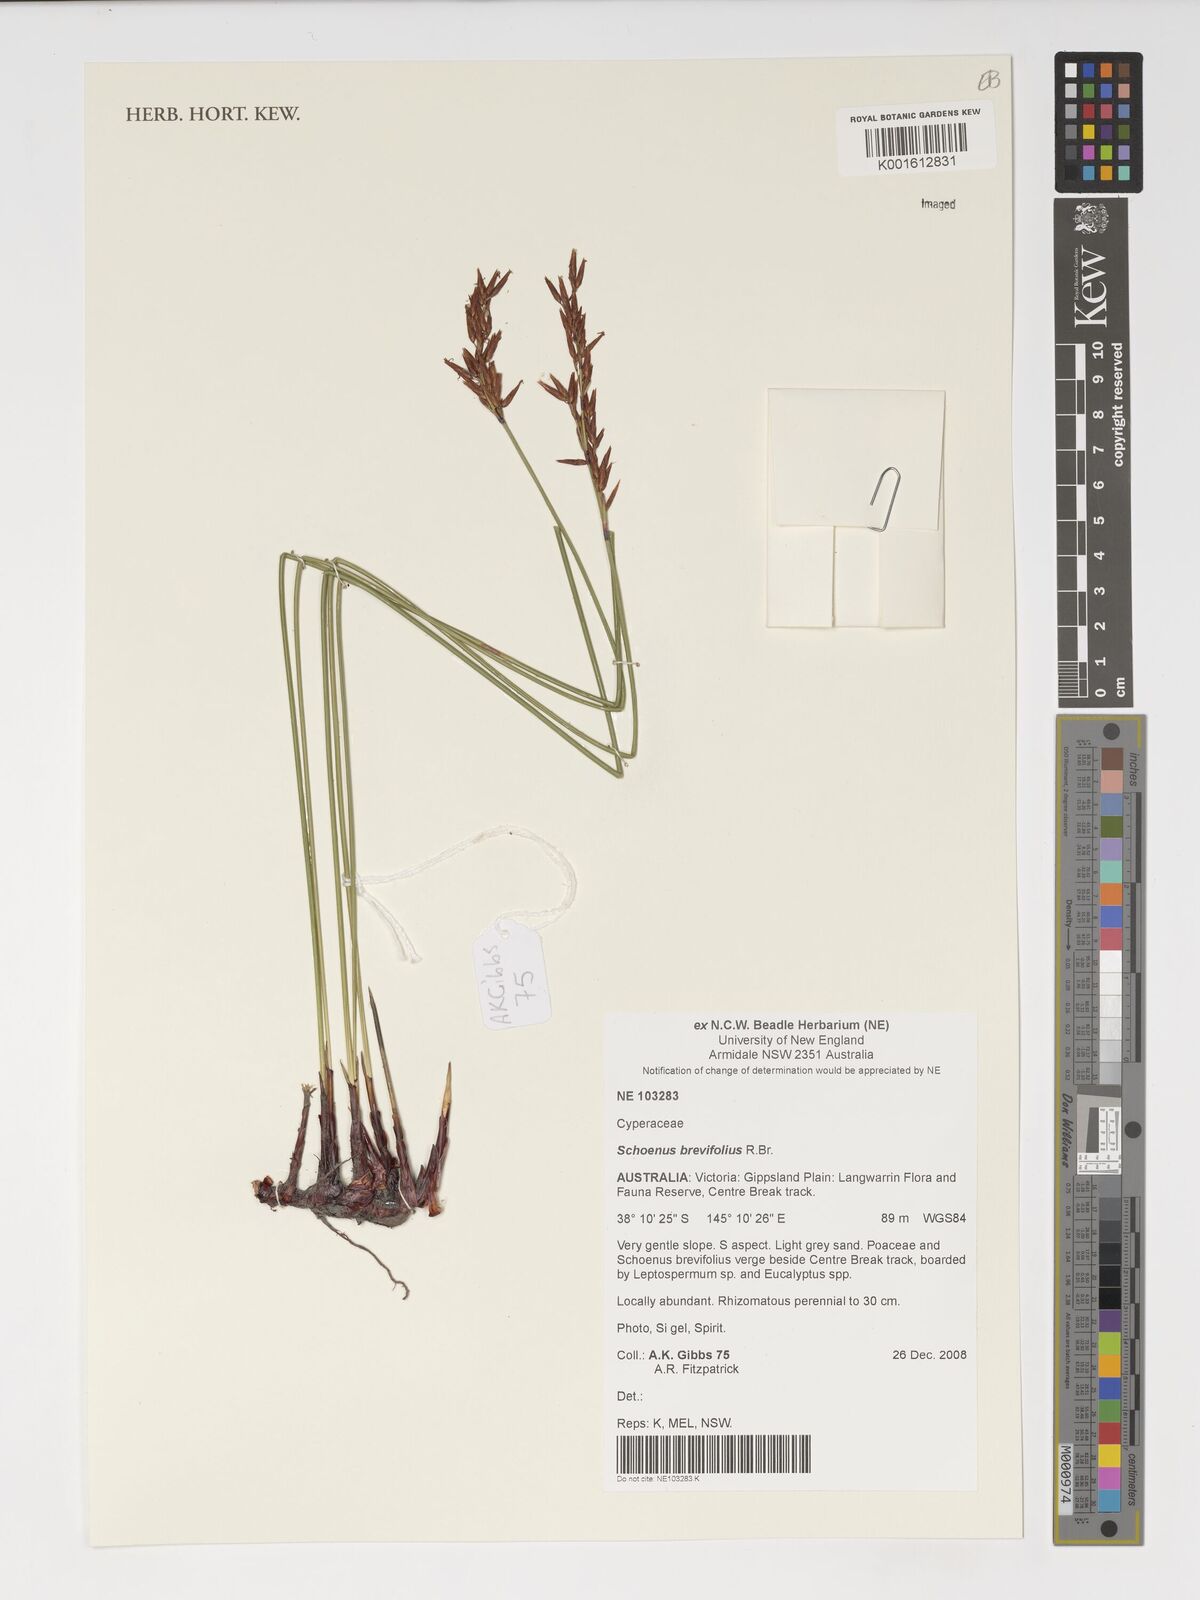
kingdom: Plantae
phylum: Tracheophyta
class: Liliopsida
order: Poales
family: Cyperaceae
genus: Schoenus
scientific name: Schoenus brevifolius
